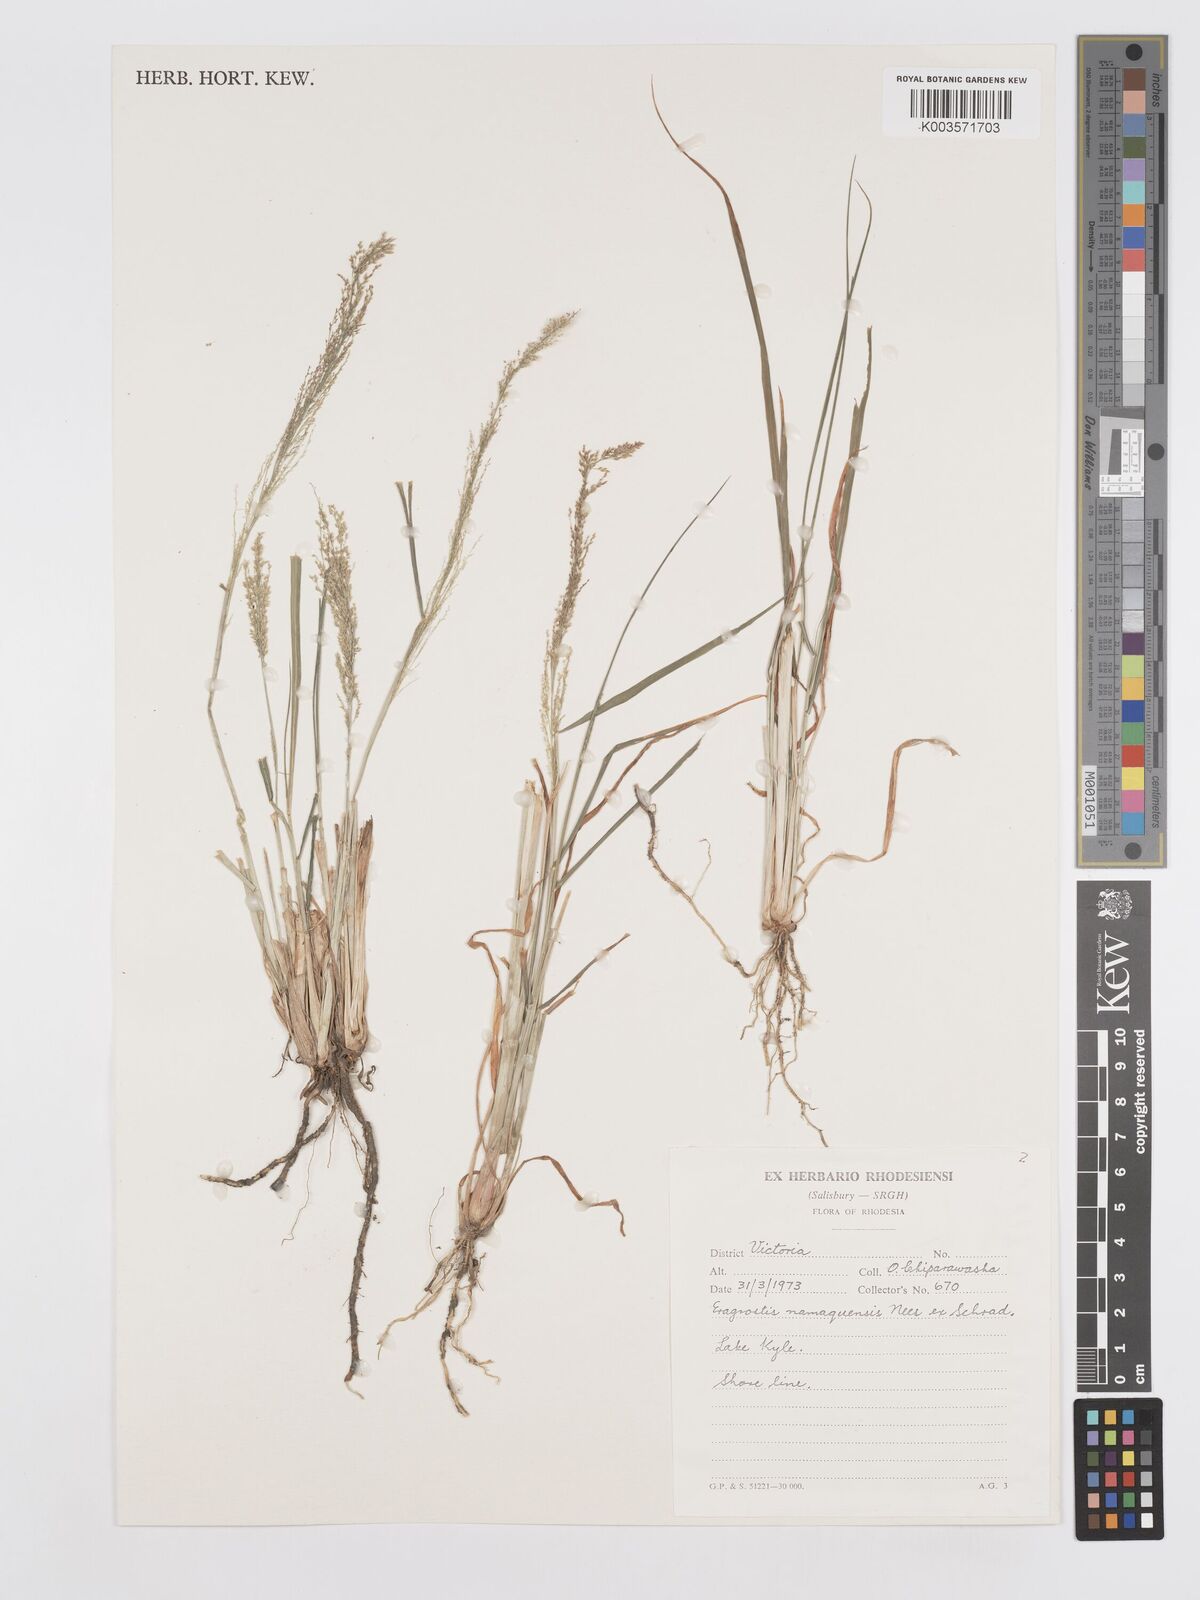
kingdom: Plantae
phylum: Tracheophyta
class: Liliopsida
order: Poales
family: Poaceae
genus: Eragrostis
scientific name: Eragrostis japonica
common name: Pond lovegrass
